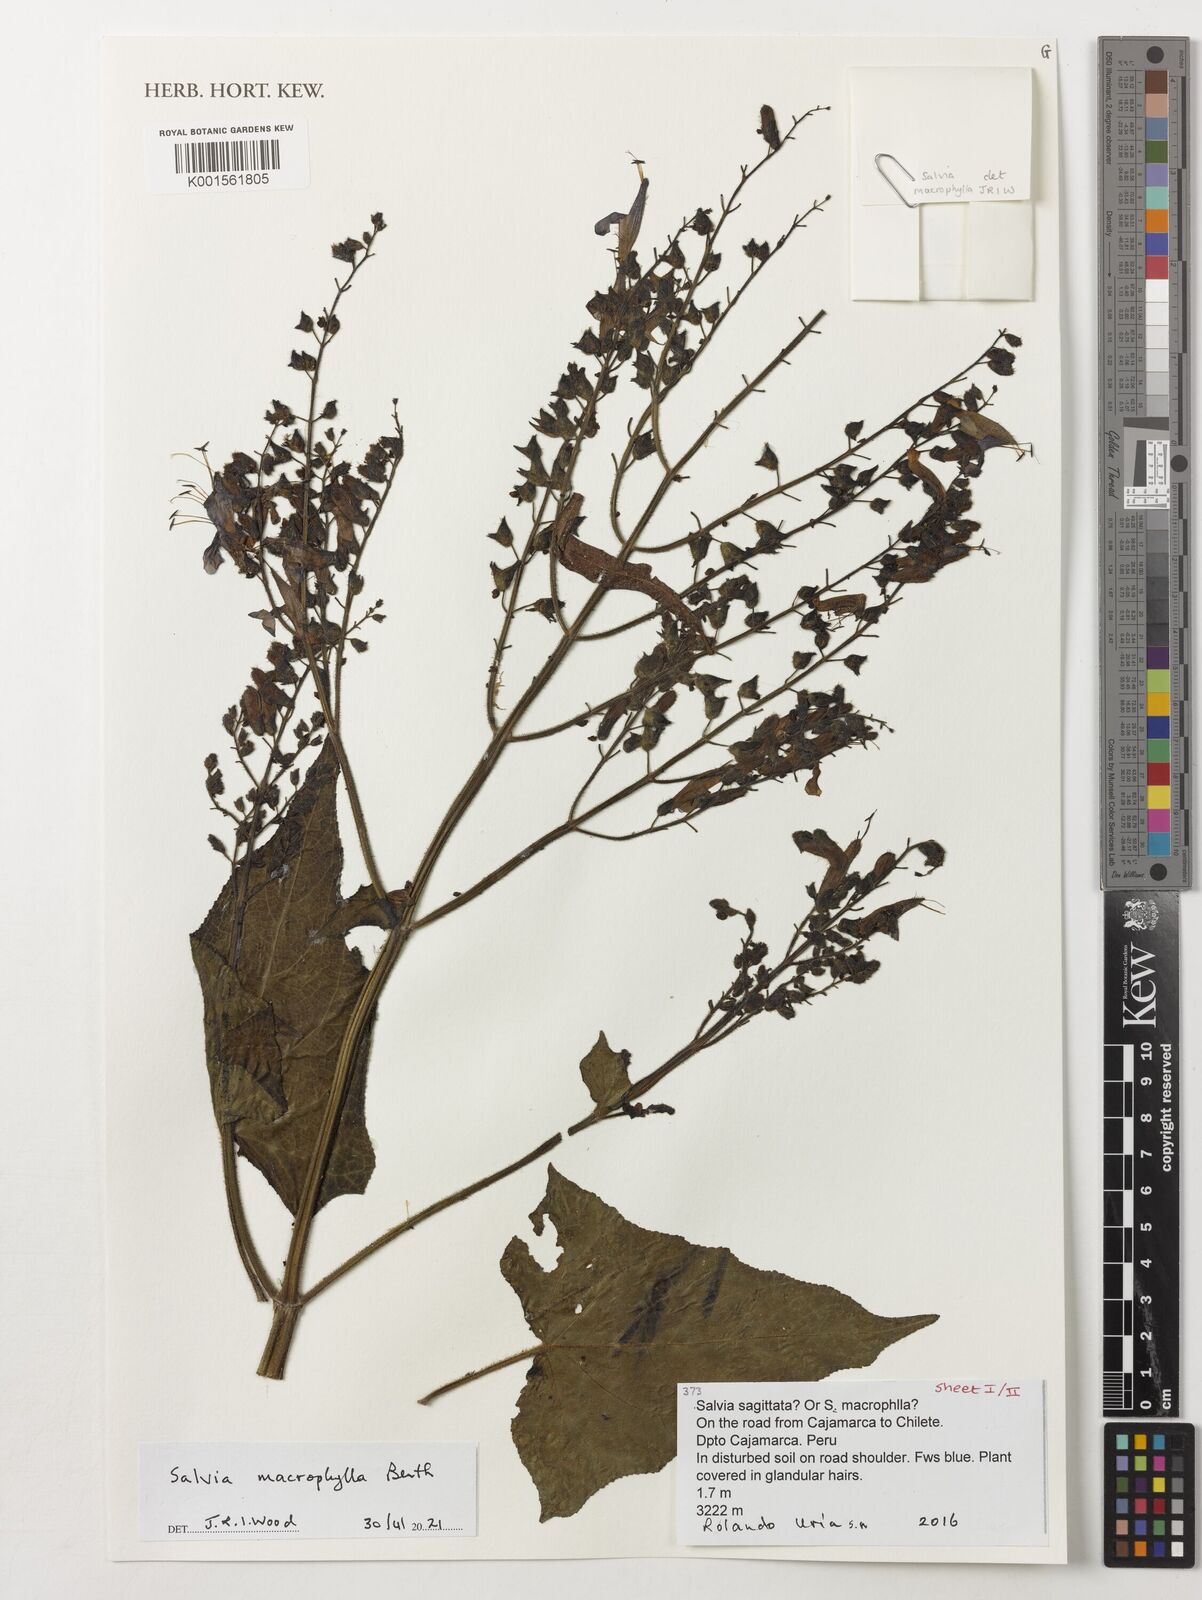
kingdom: Plantae
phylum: Tracheophyta
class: Magnoliopsida
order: Lamiales
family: Lamiaceae
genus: Salvia
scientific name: Salvia macrophylla
